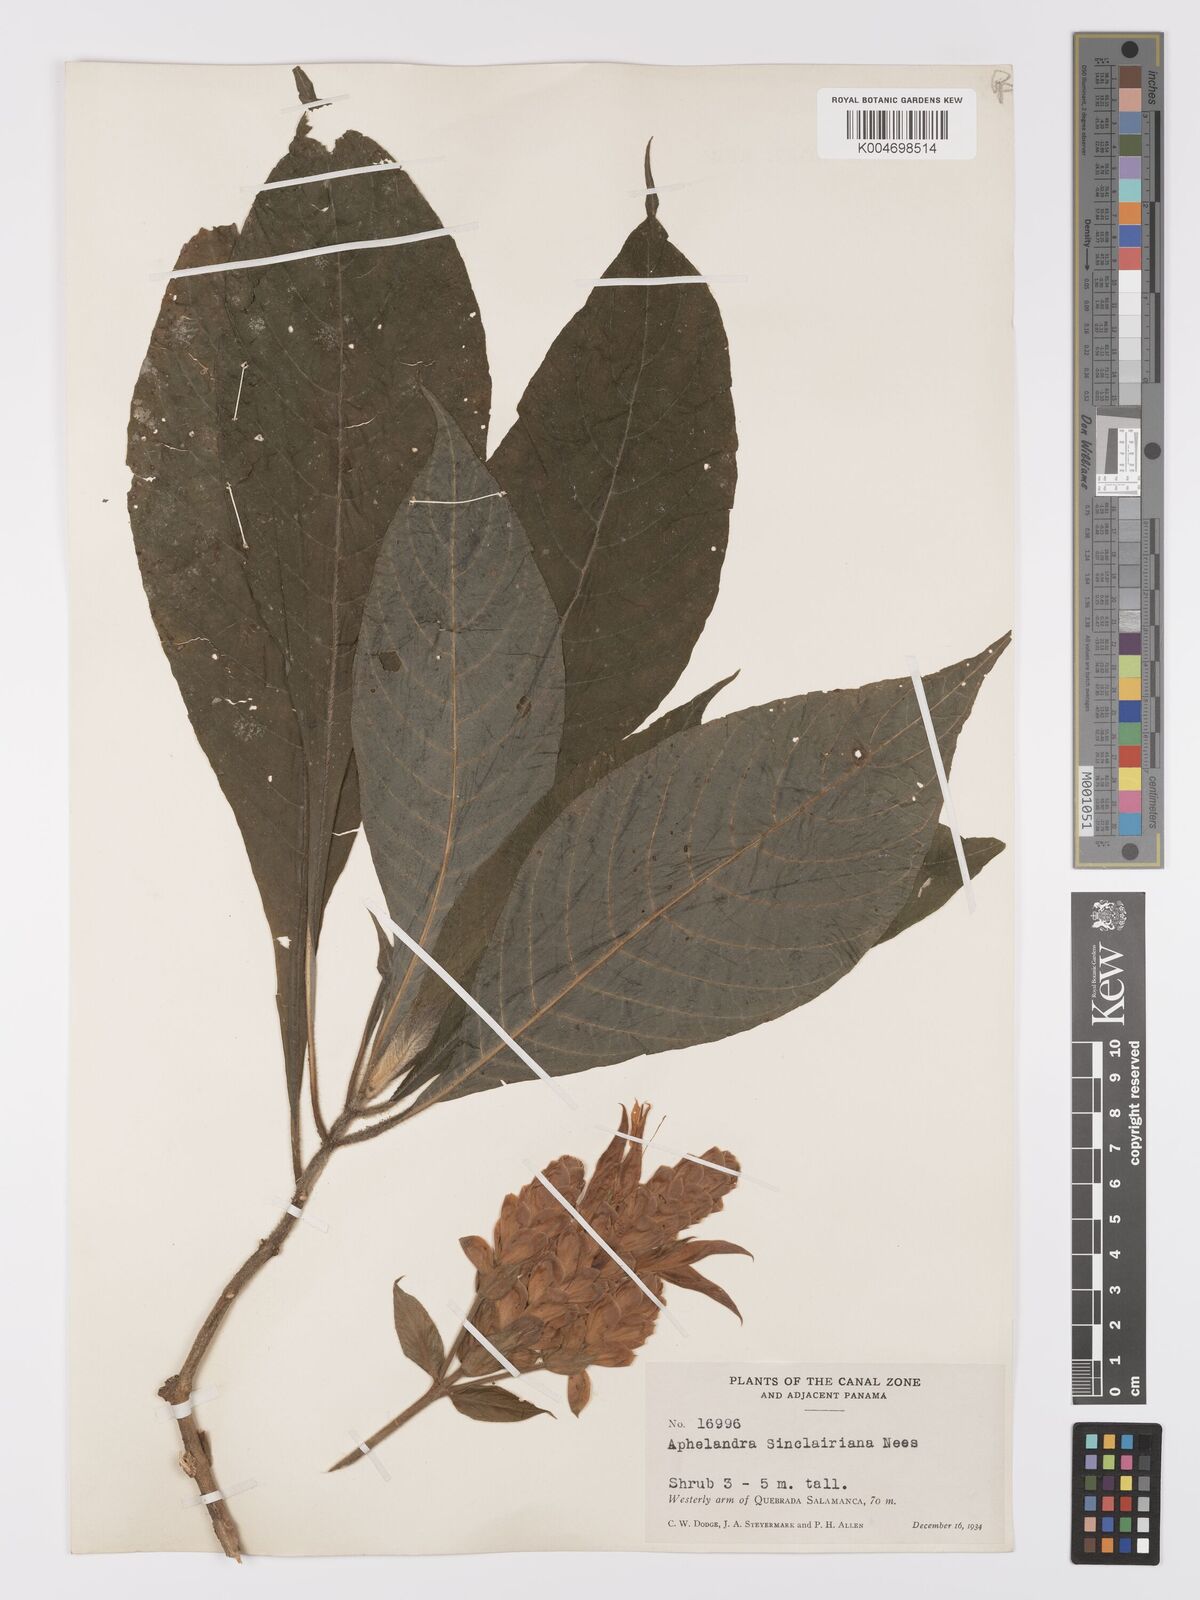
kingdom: Plantae
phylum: Tracheophyta
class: Magnoliopsida
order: Lamiales
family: Acanthaceae
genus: Aphelandra
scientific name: Aphelandra sinclairiana
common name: Coral aphelandra
